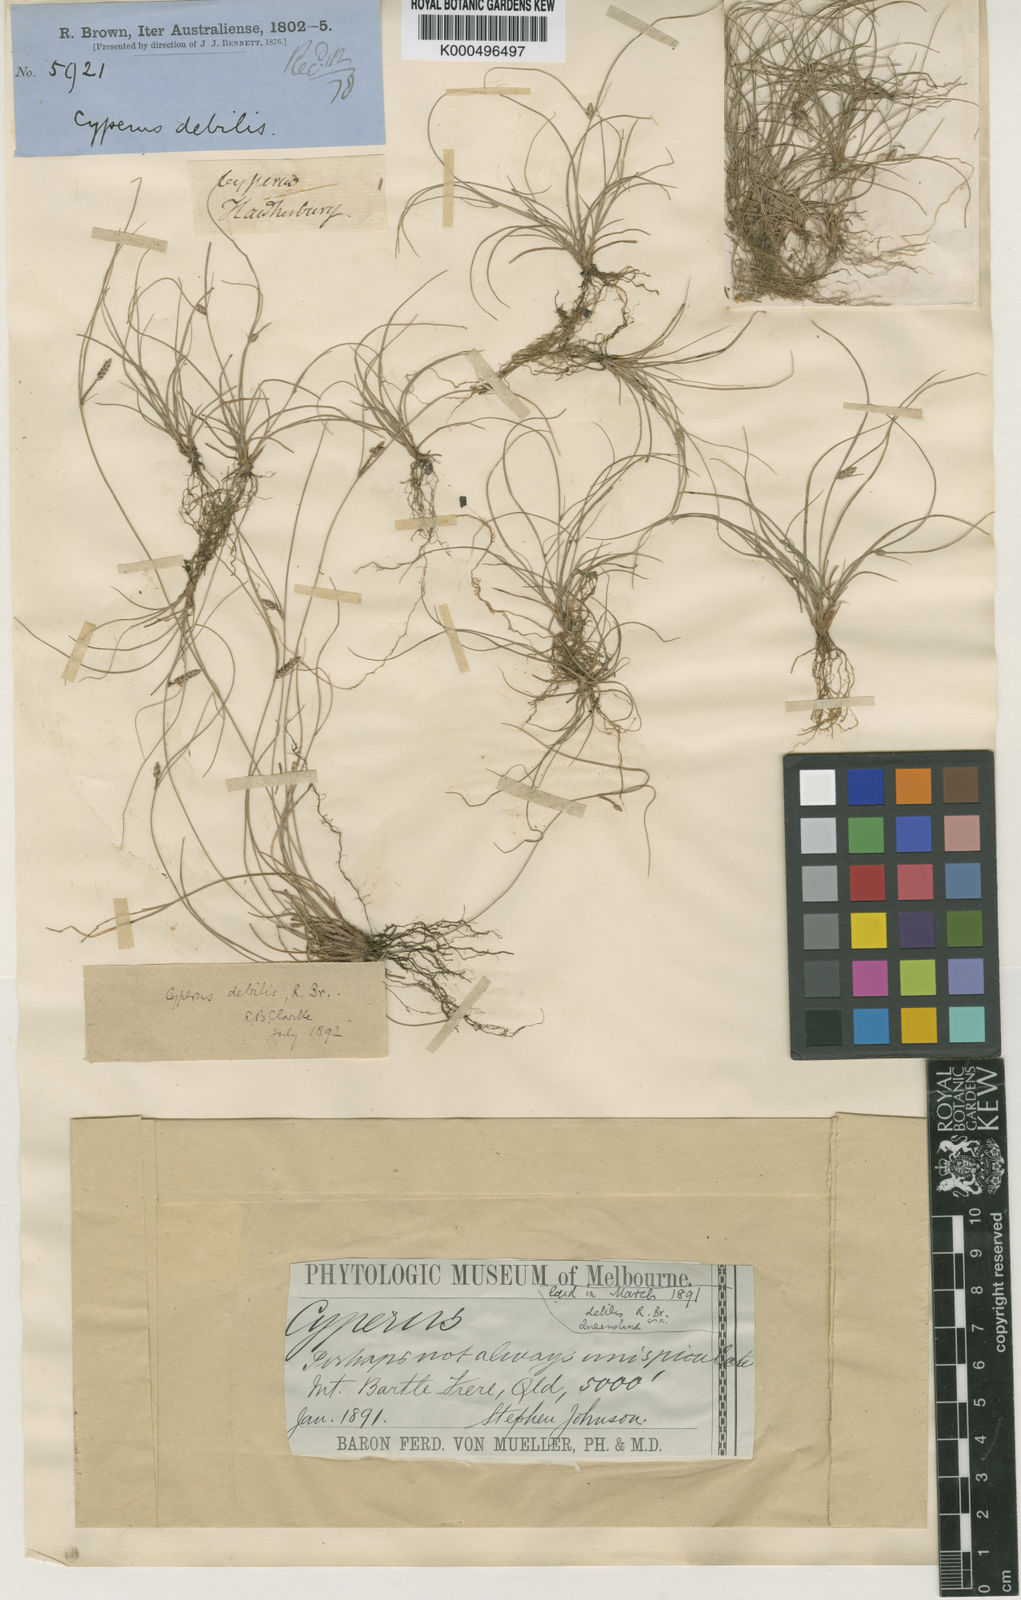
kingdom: Plantae
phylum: Tracheophyta
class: Liliopsida
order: Poales
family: Cyperaceae
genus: Cyperus
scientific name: Cyperus enervis
